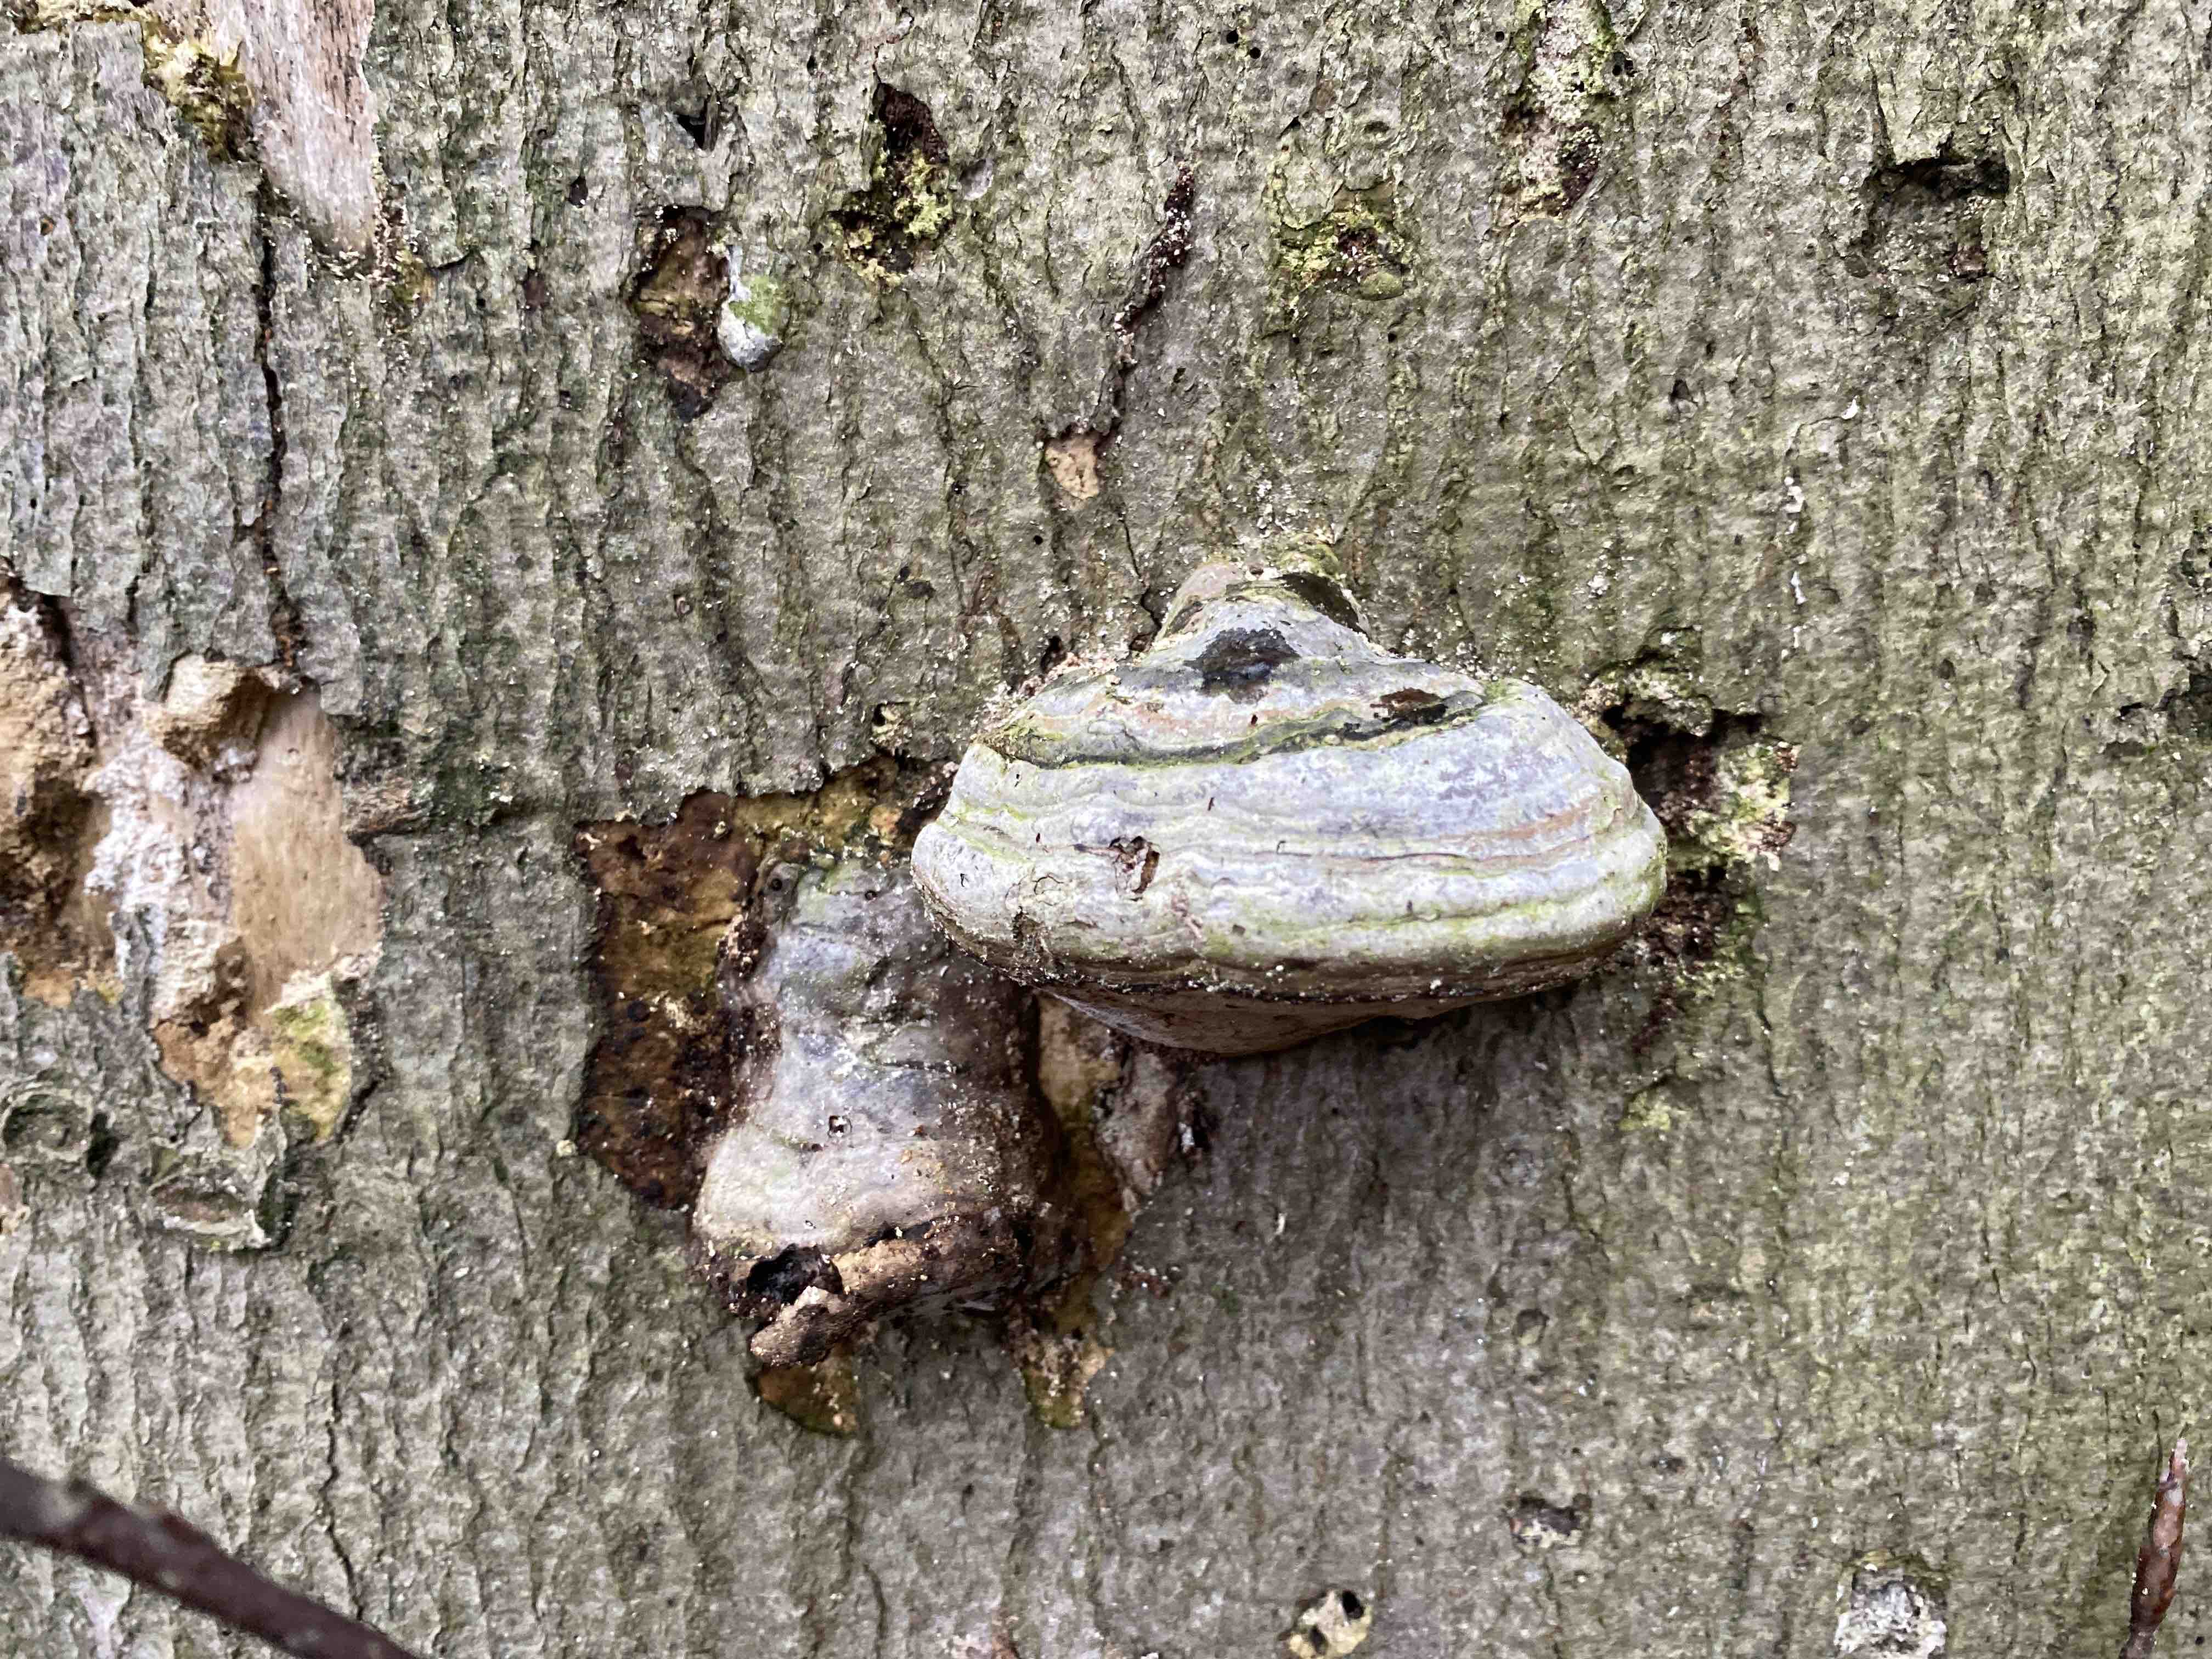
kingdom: Fungi
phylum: Basidiomycota
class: Agaricomycetes
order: Polyporales
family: Polyporaceae
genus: Fomes
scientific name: Fomes fomentarius
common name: tøndersvamp
